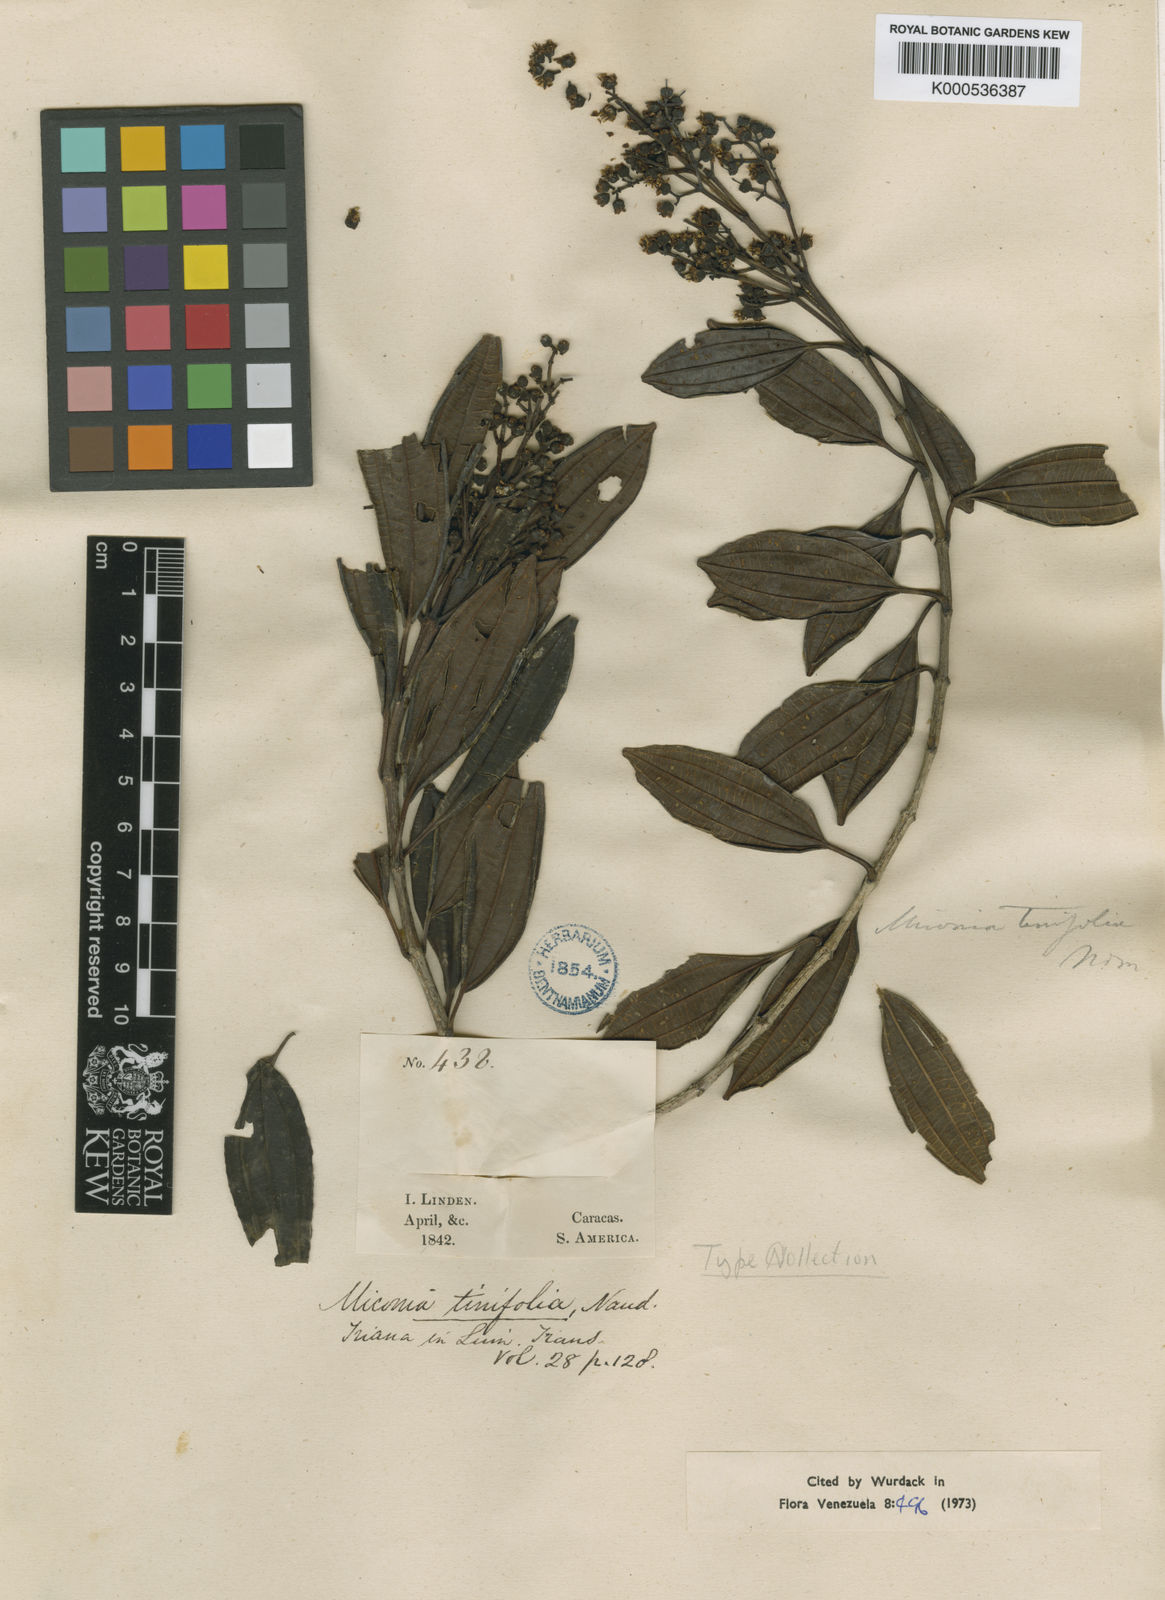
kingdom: Plantae
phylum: Tracheophyta
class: Magnoliopsida
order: Myrtales
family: Melastomataceae
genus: Miconia
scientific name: Miconia tinifolia
